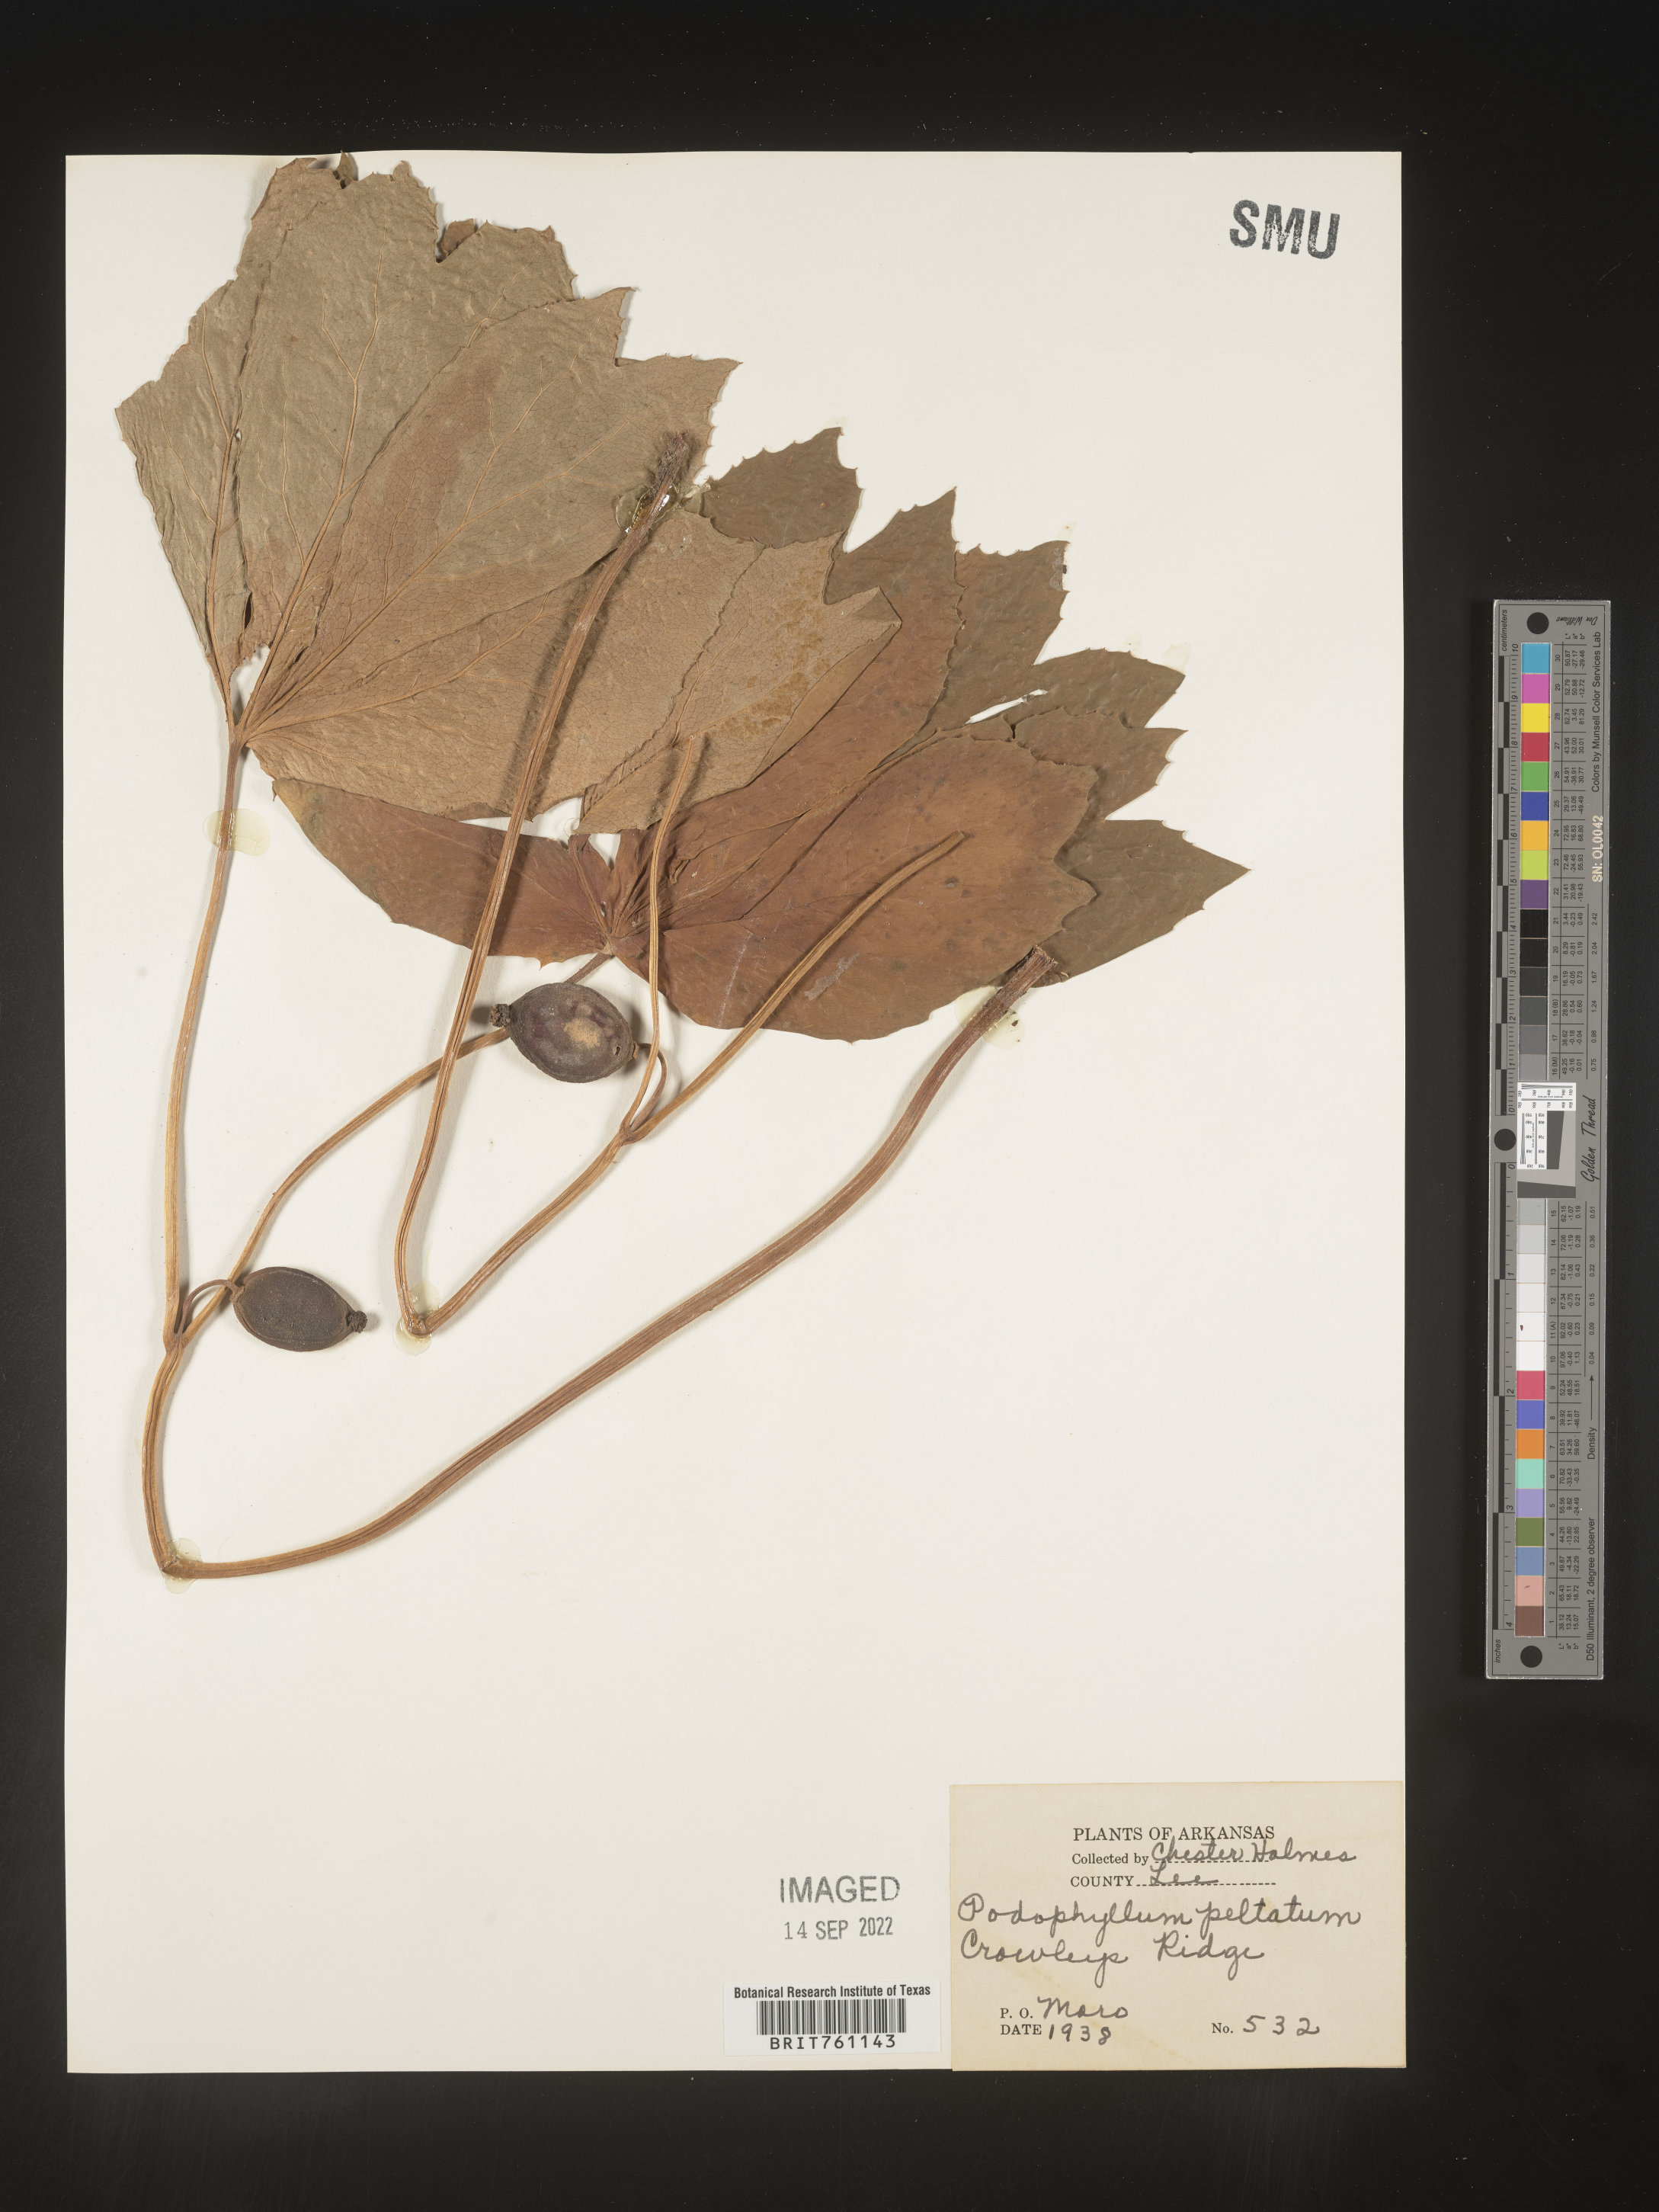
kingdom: Plantae
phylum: Tracheophyta
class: Magnoliopsida
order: Ranunculales
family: Berberidaceae
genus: Podophyllum
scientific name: Podophyllum peltatum
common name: Wild mandrake
